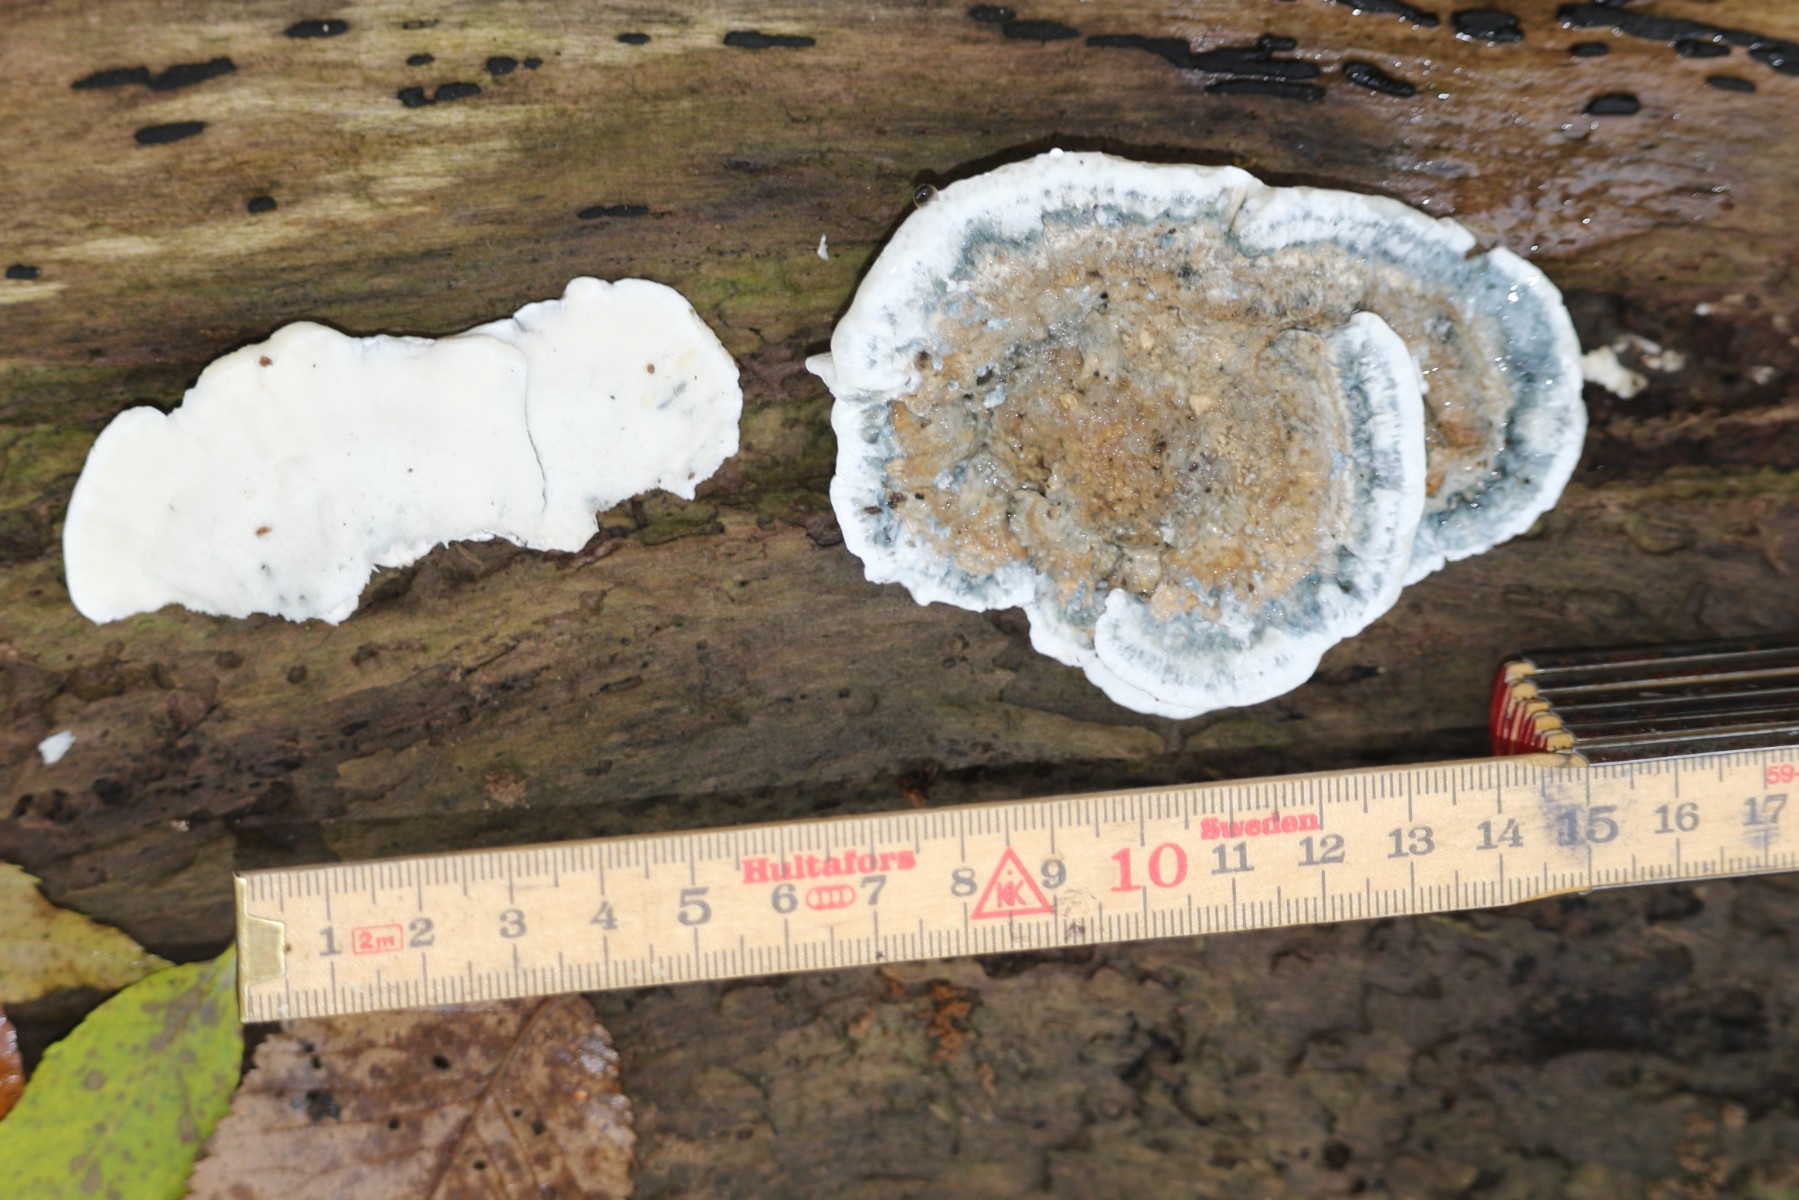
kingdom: Fungi
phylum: Basidiomycota
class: Agaricomycetes
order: Polyporales
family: Polyporaceae
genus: Cyanosporus
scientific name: Cyanosporus alni
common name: blegblå kødporesvamp
